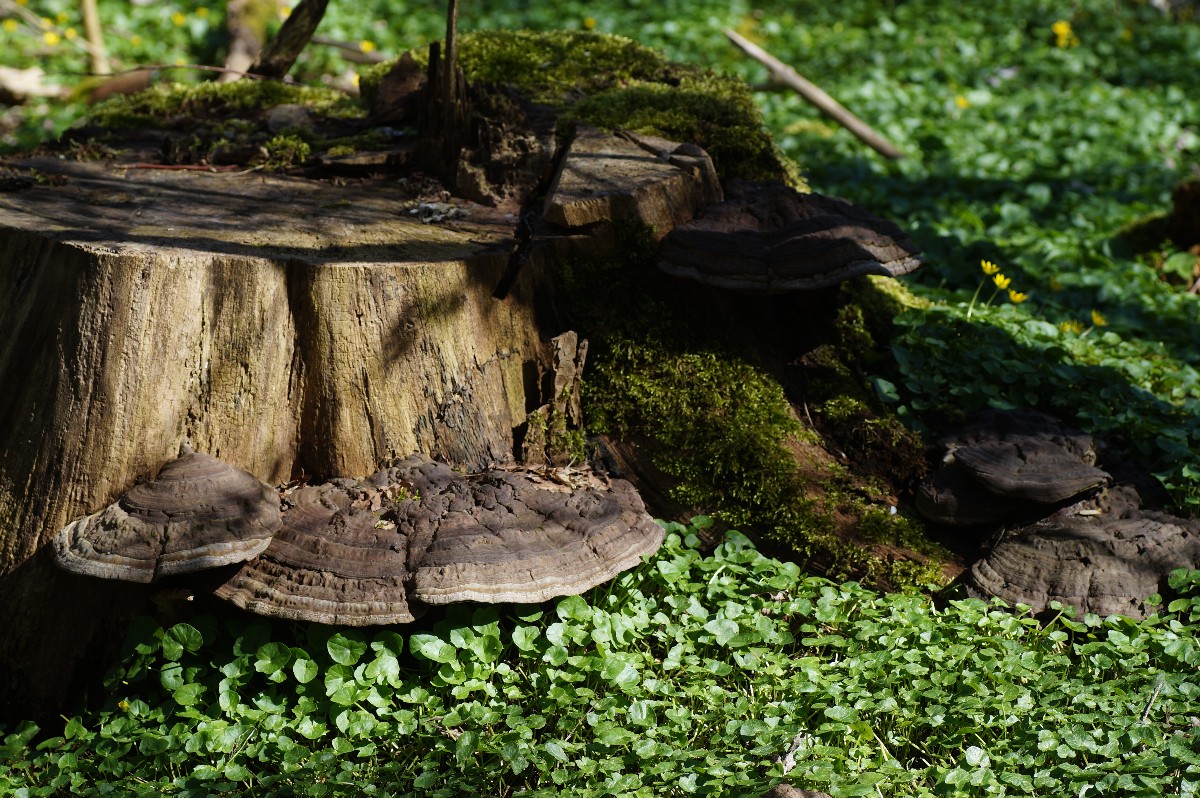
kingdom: Fungi
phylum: Basidiomycota
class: Agaricomycetes
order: Polyporales
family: Polyporaceae
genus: Ganoderma
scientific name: Ganoderma applanatum
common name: flad lakporesvamp
